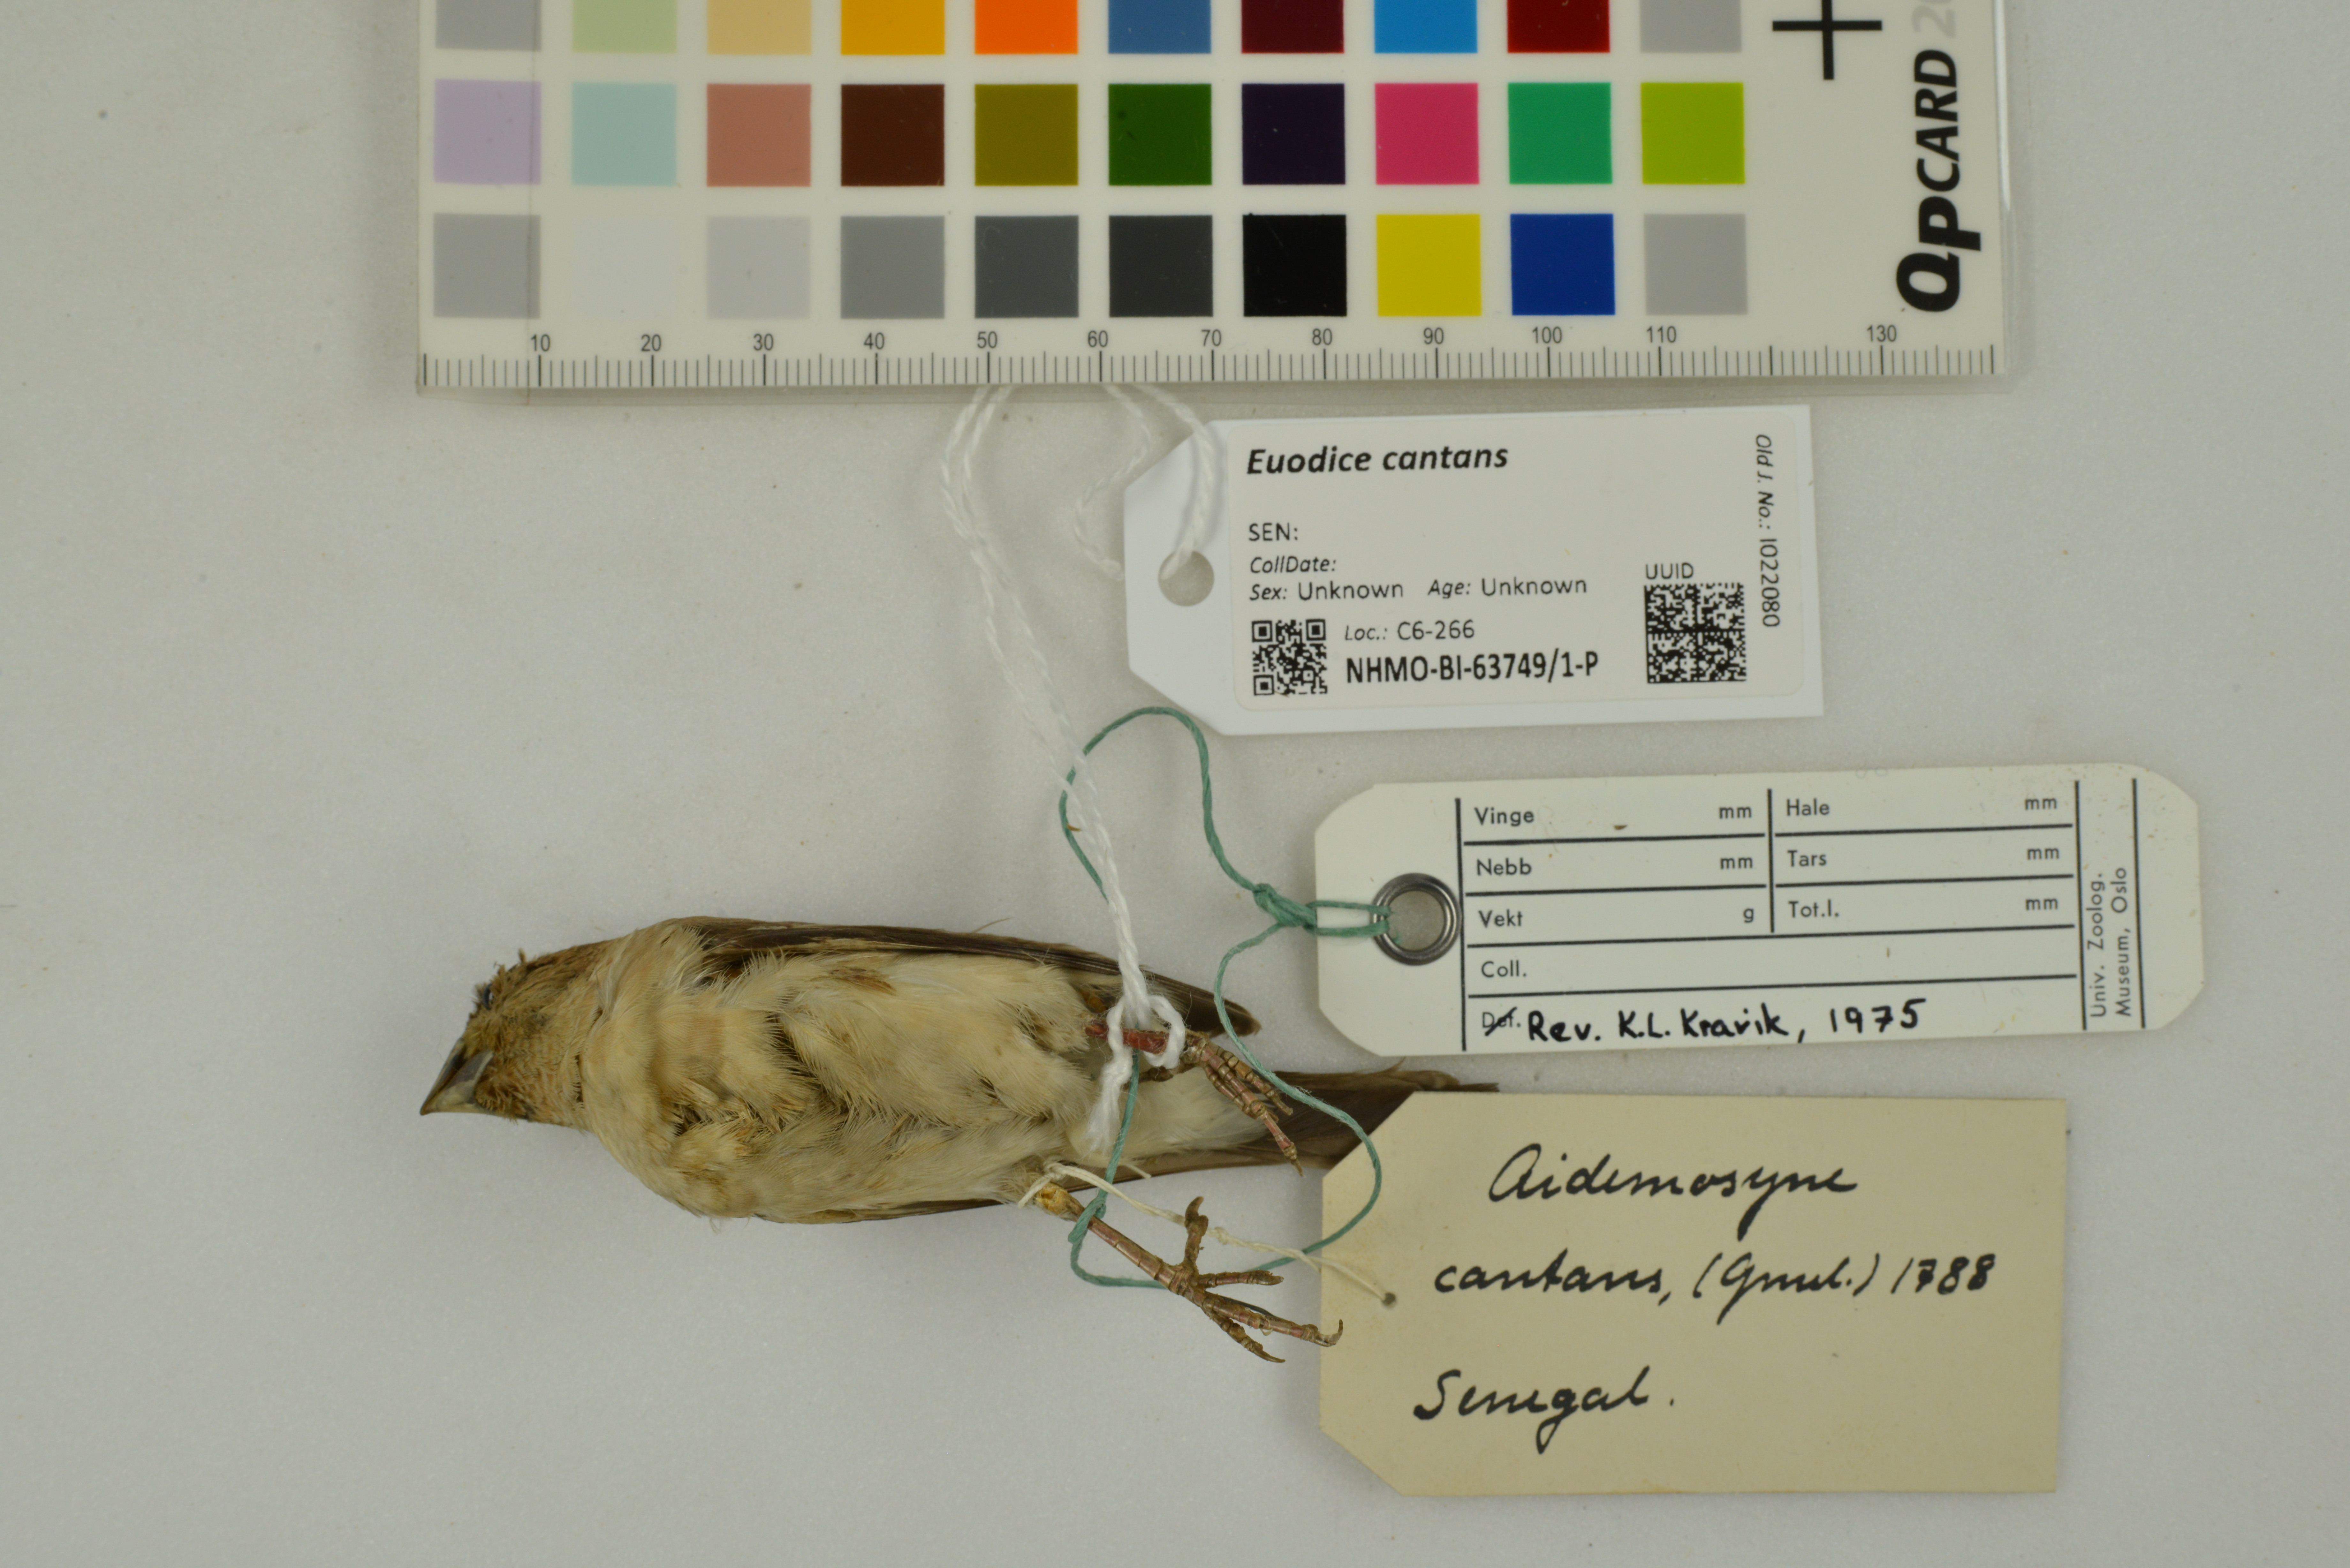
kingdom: Animalia
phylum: Chordata
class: Aves
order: Passeriformes
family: Estrildidae
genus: Euodice
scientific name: Euodice cantans
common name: African silverbill
